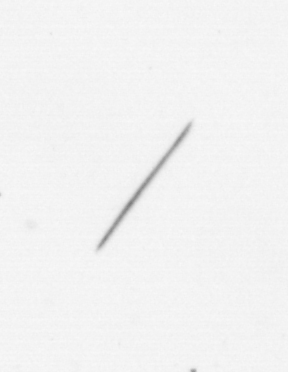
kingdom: Chromista
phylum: Ochrophyta
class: Bacillariophyceae
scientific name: Bacillariophyceae
